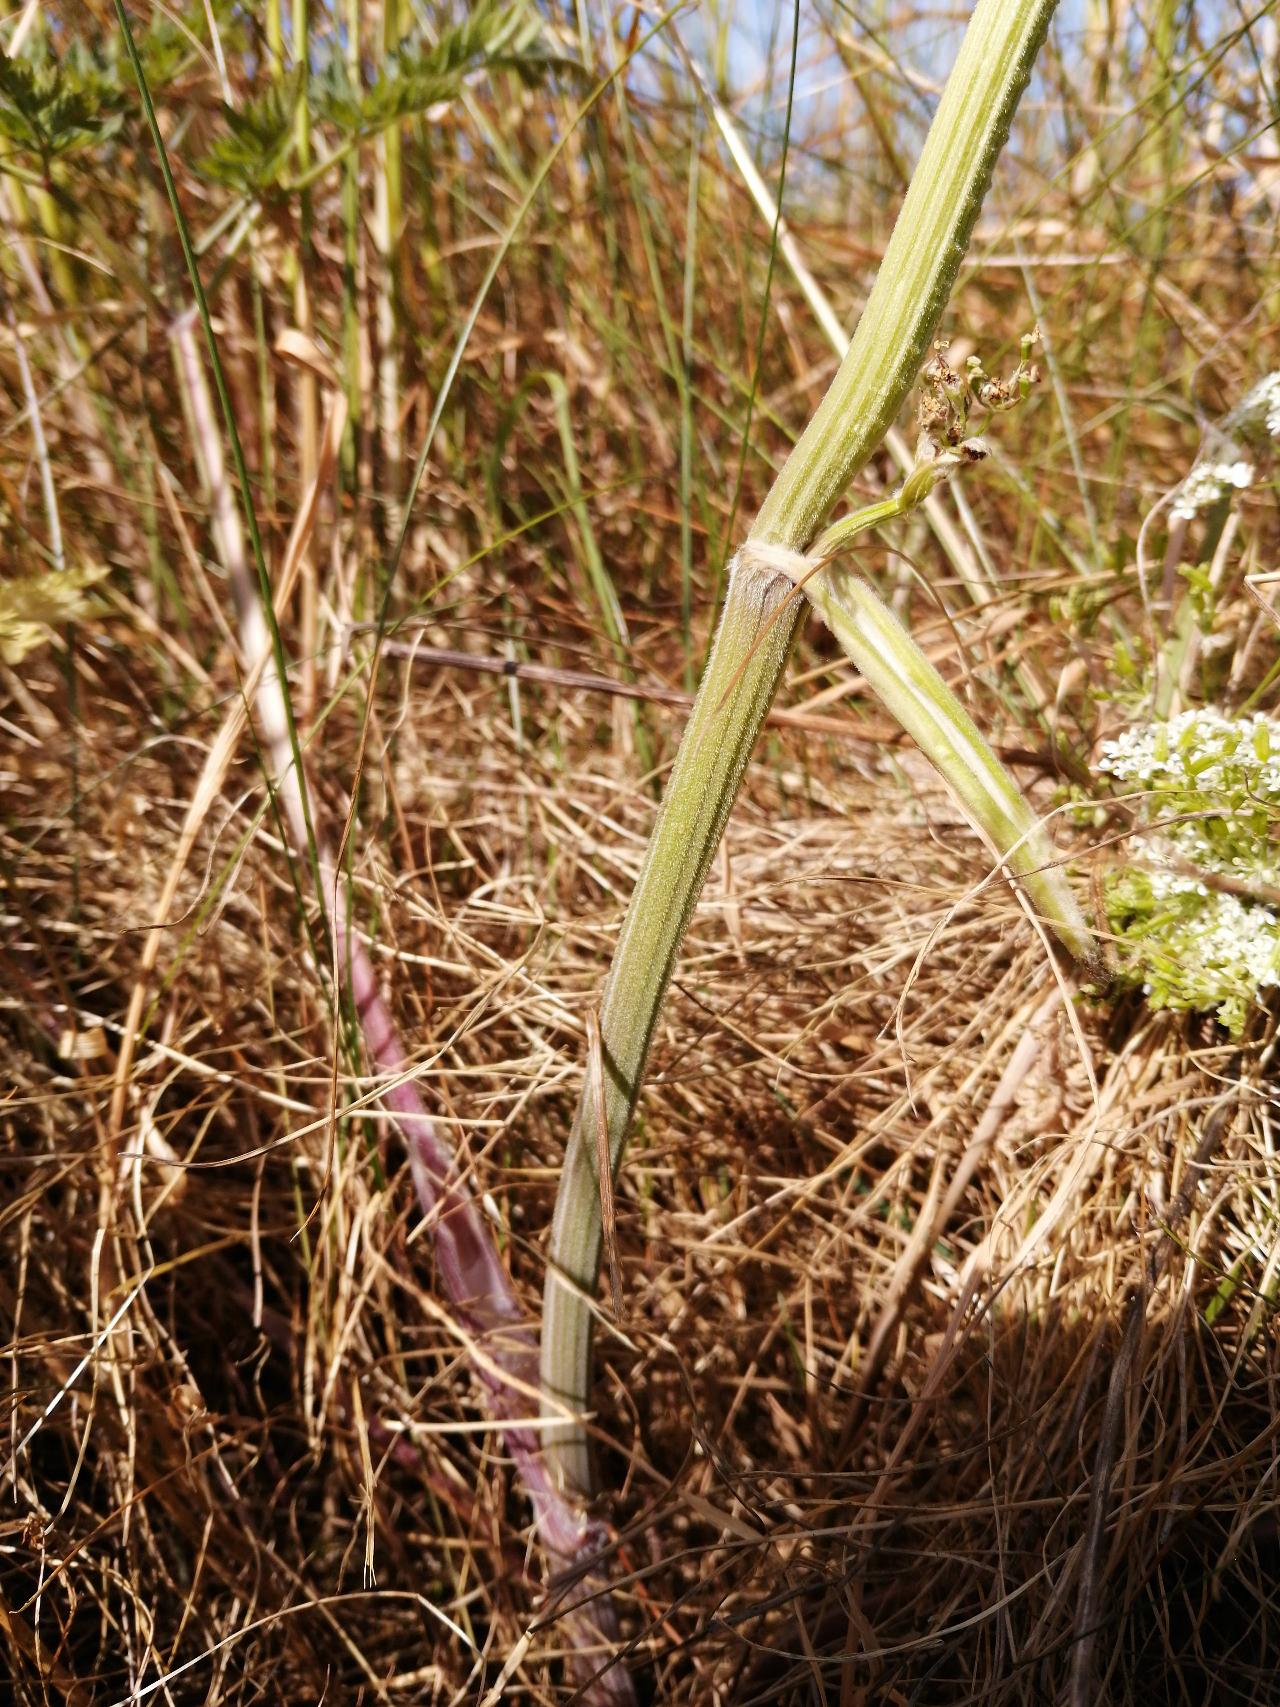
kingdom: Plantae
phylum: Tracheophyta
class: Magnoliopsida
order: Apiales
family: Apiaceae
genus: Anthriscus
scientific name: Anthriscus sylvestris
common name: Vild kørvel
